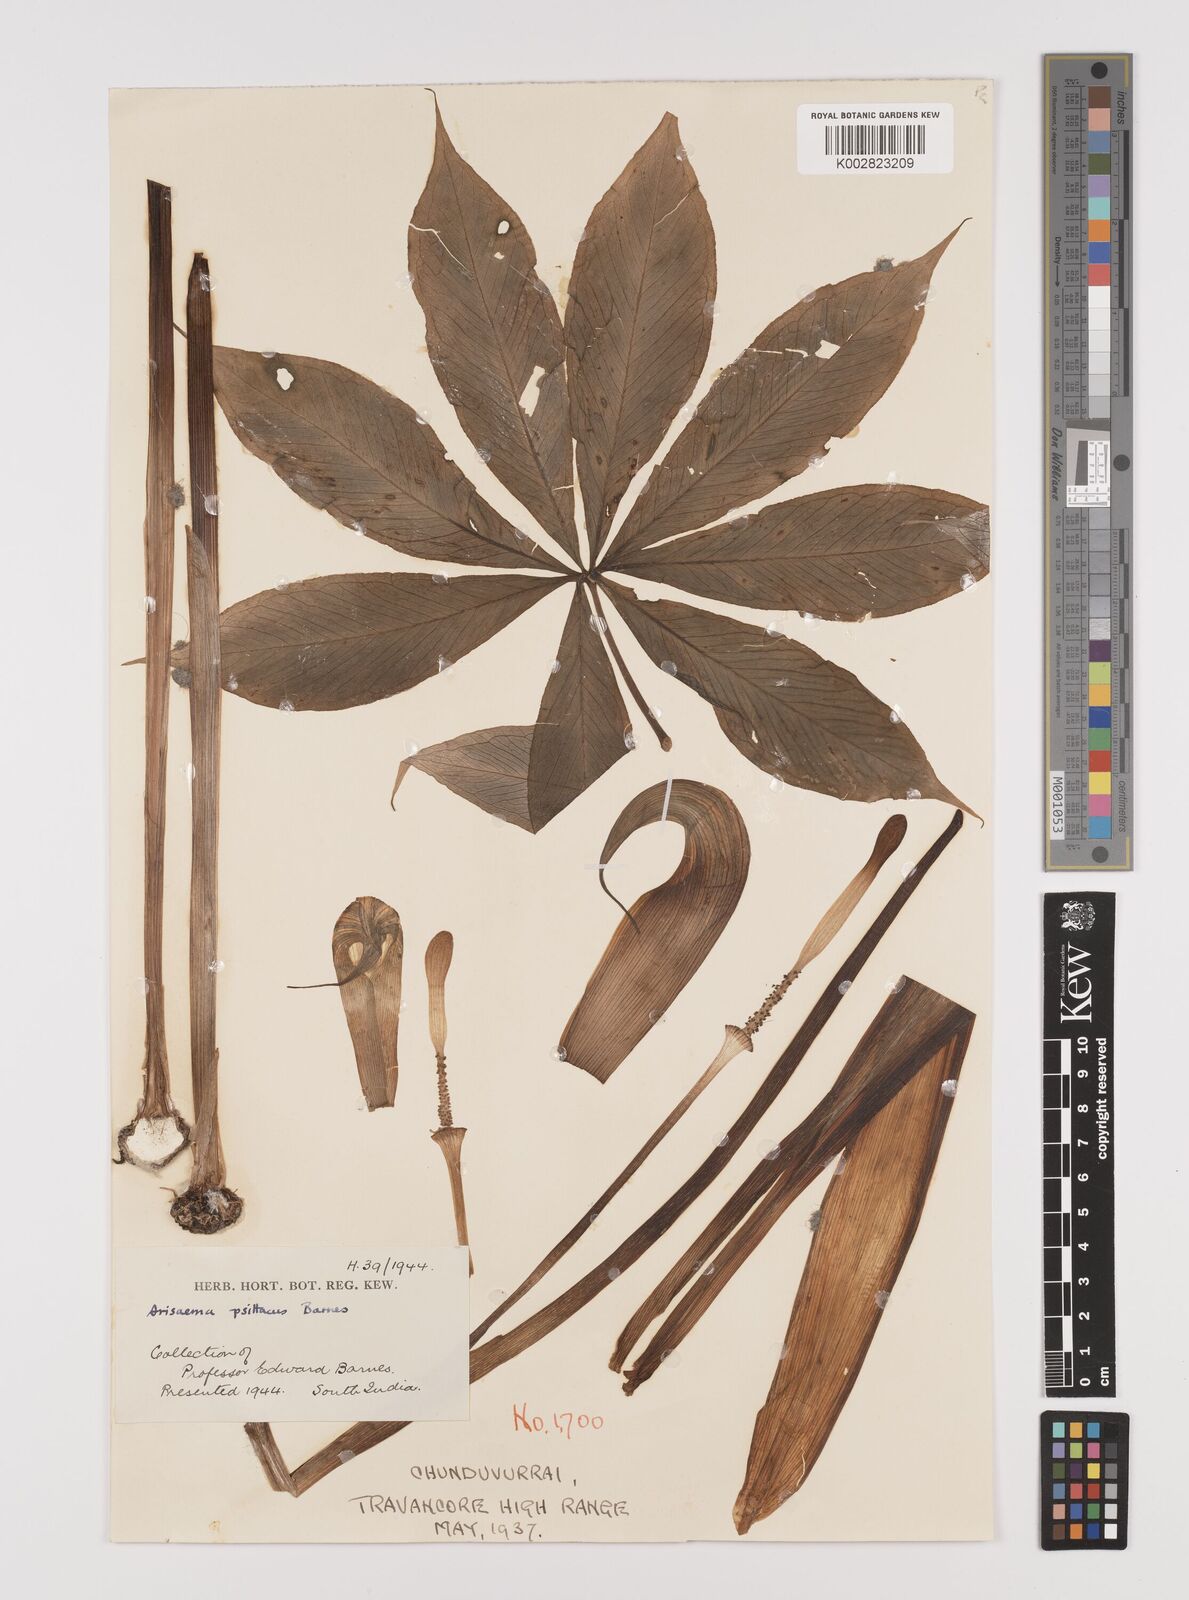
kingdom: Plantae
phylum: Tracheophyta
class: Liliopsida
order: Alismatales
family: Araceae
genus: Arisaema
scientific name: Arisaema psittacus
